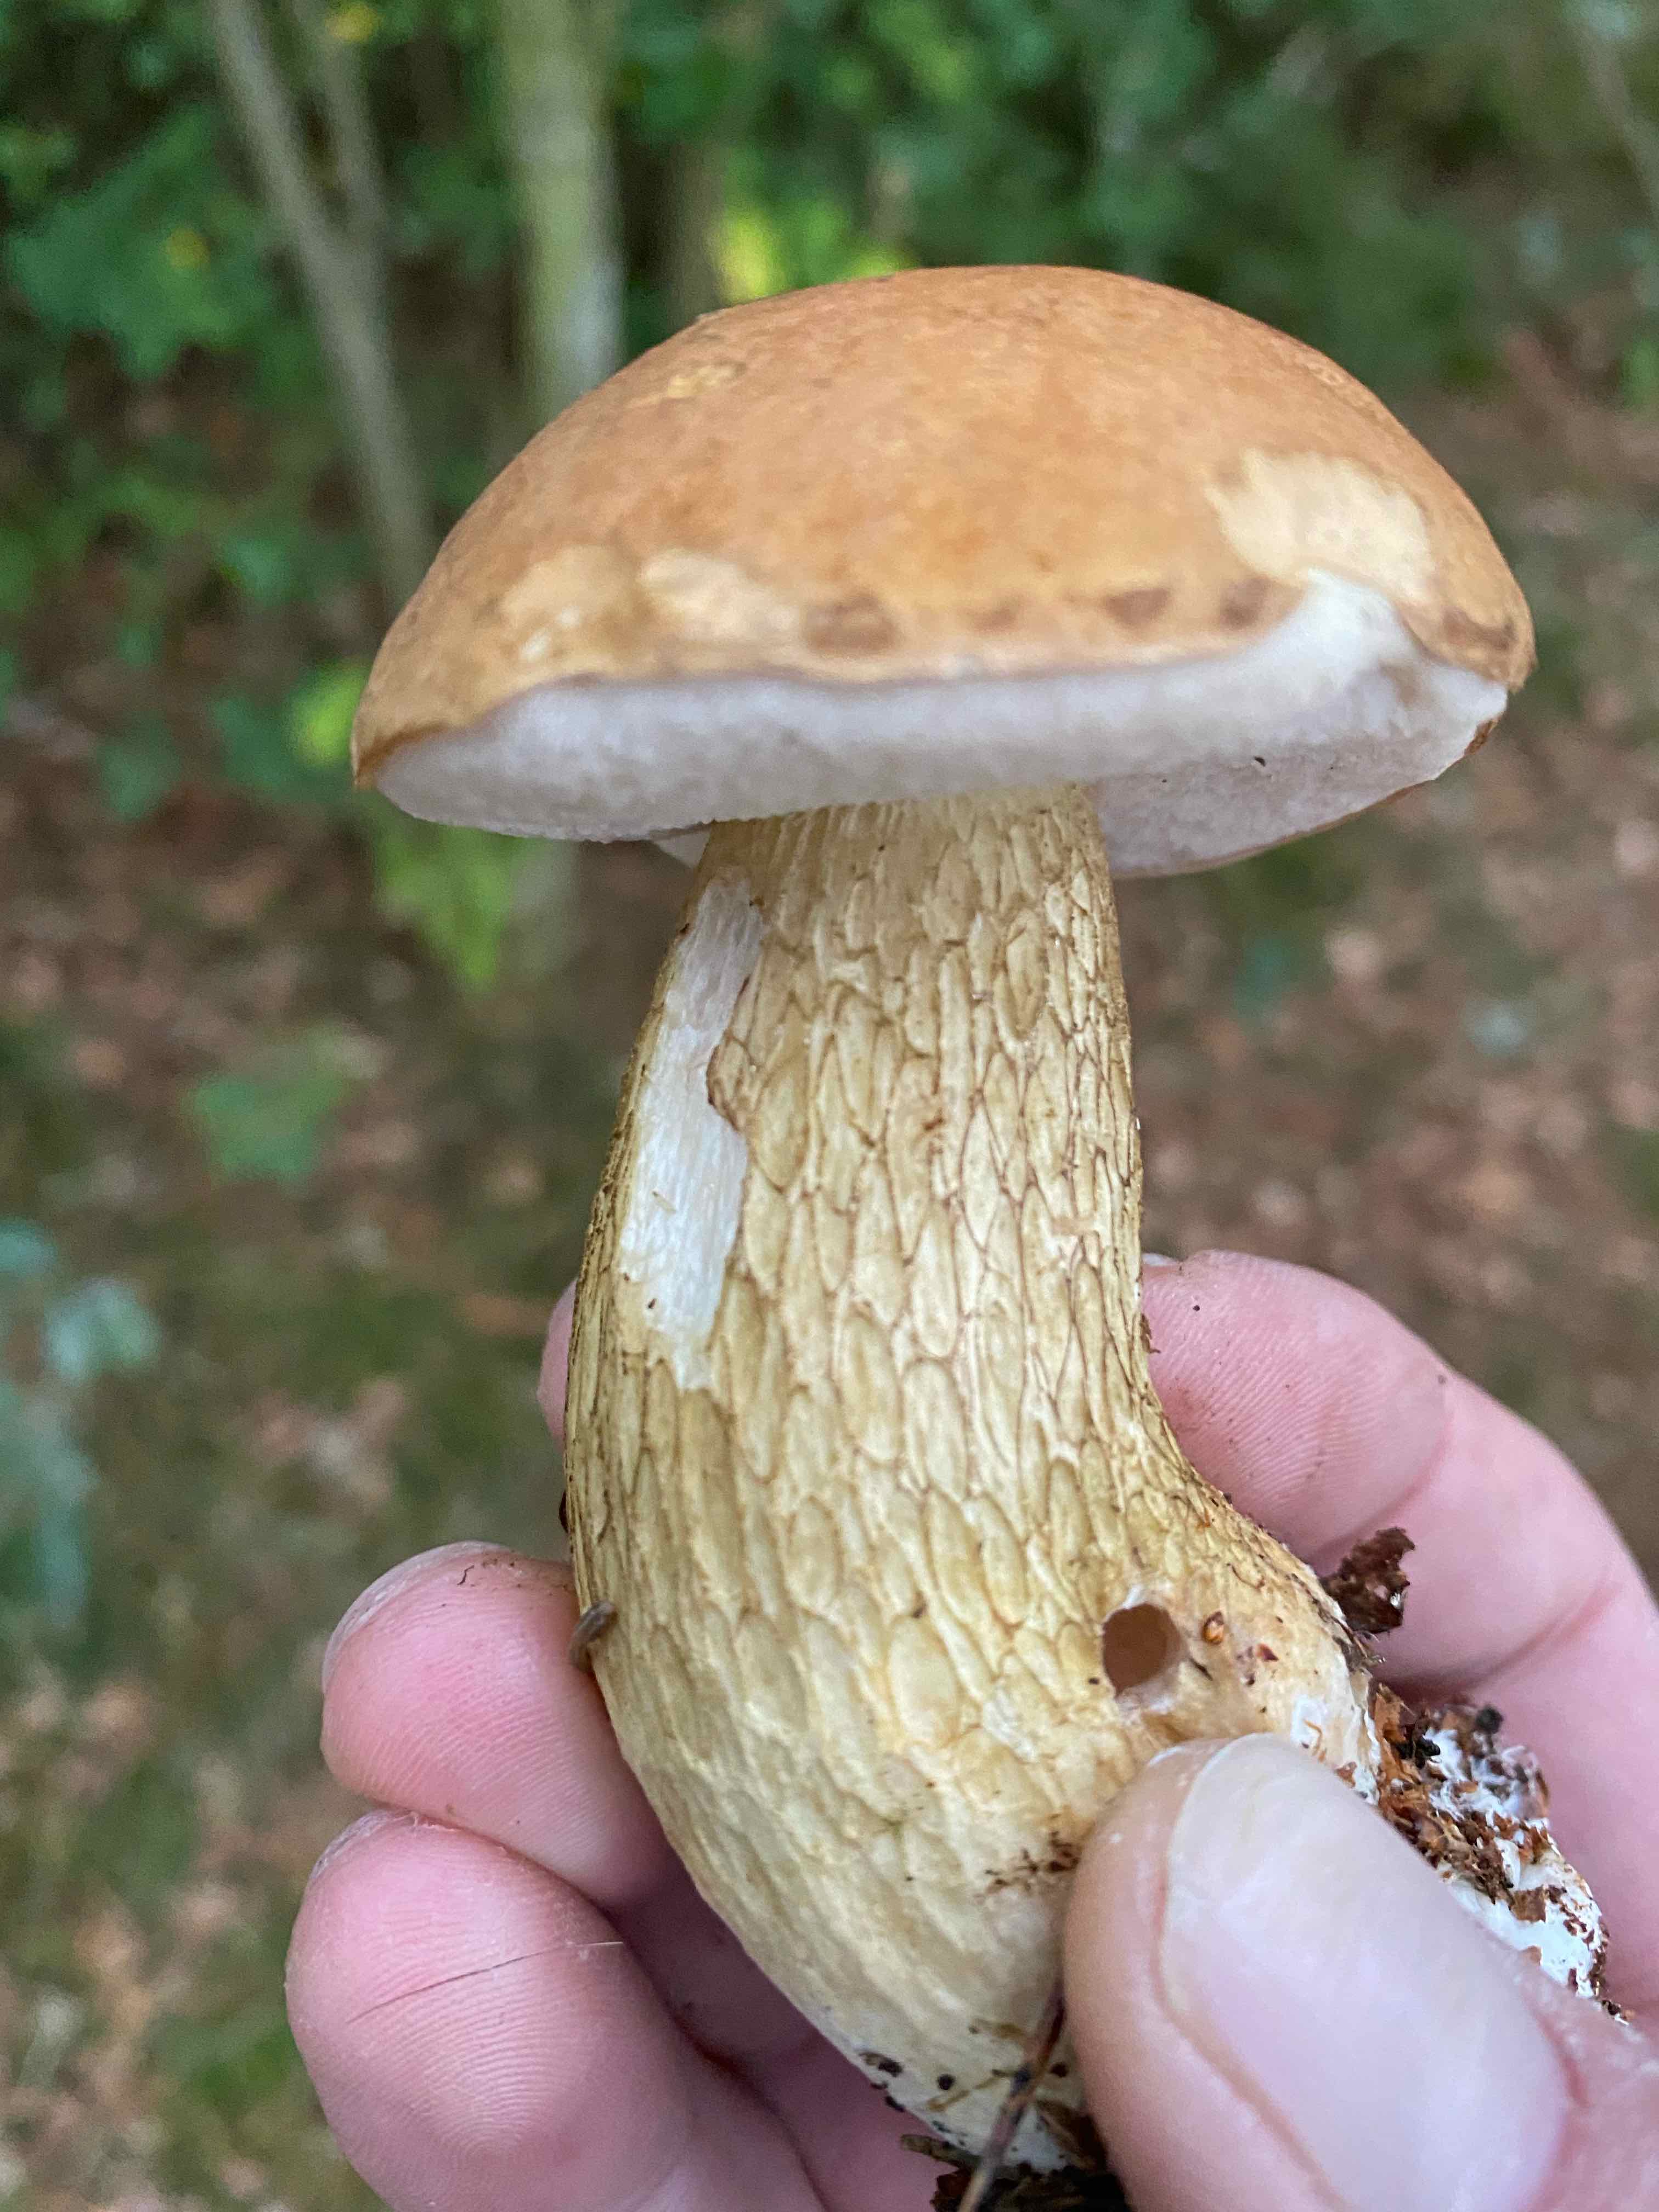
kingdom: Fungi
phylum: Basidiomycota
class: Agaricomycetes
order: Boletales
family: Boletaceae
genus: Tylopilus
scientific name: Tylopilus felleus
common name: galderørhat
